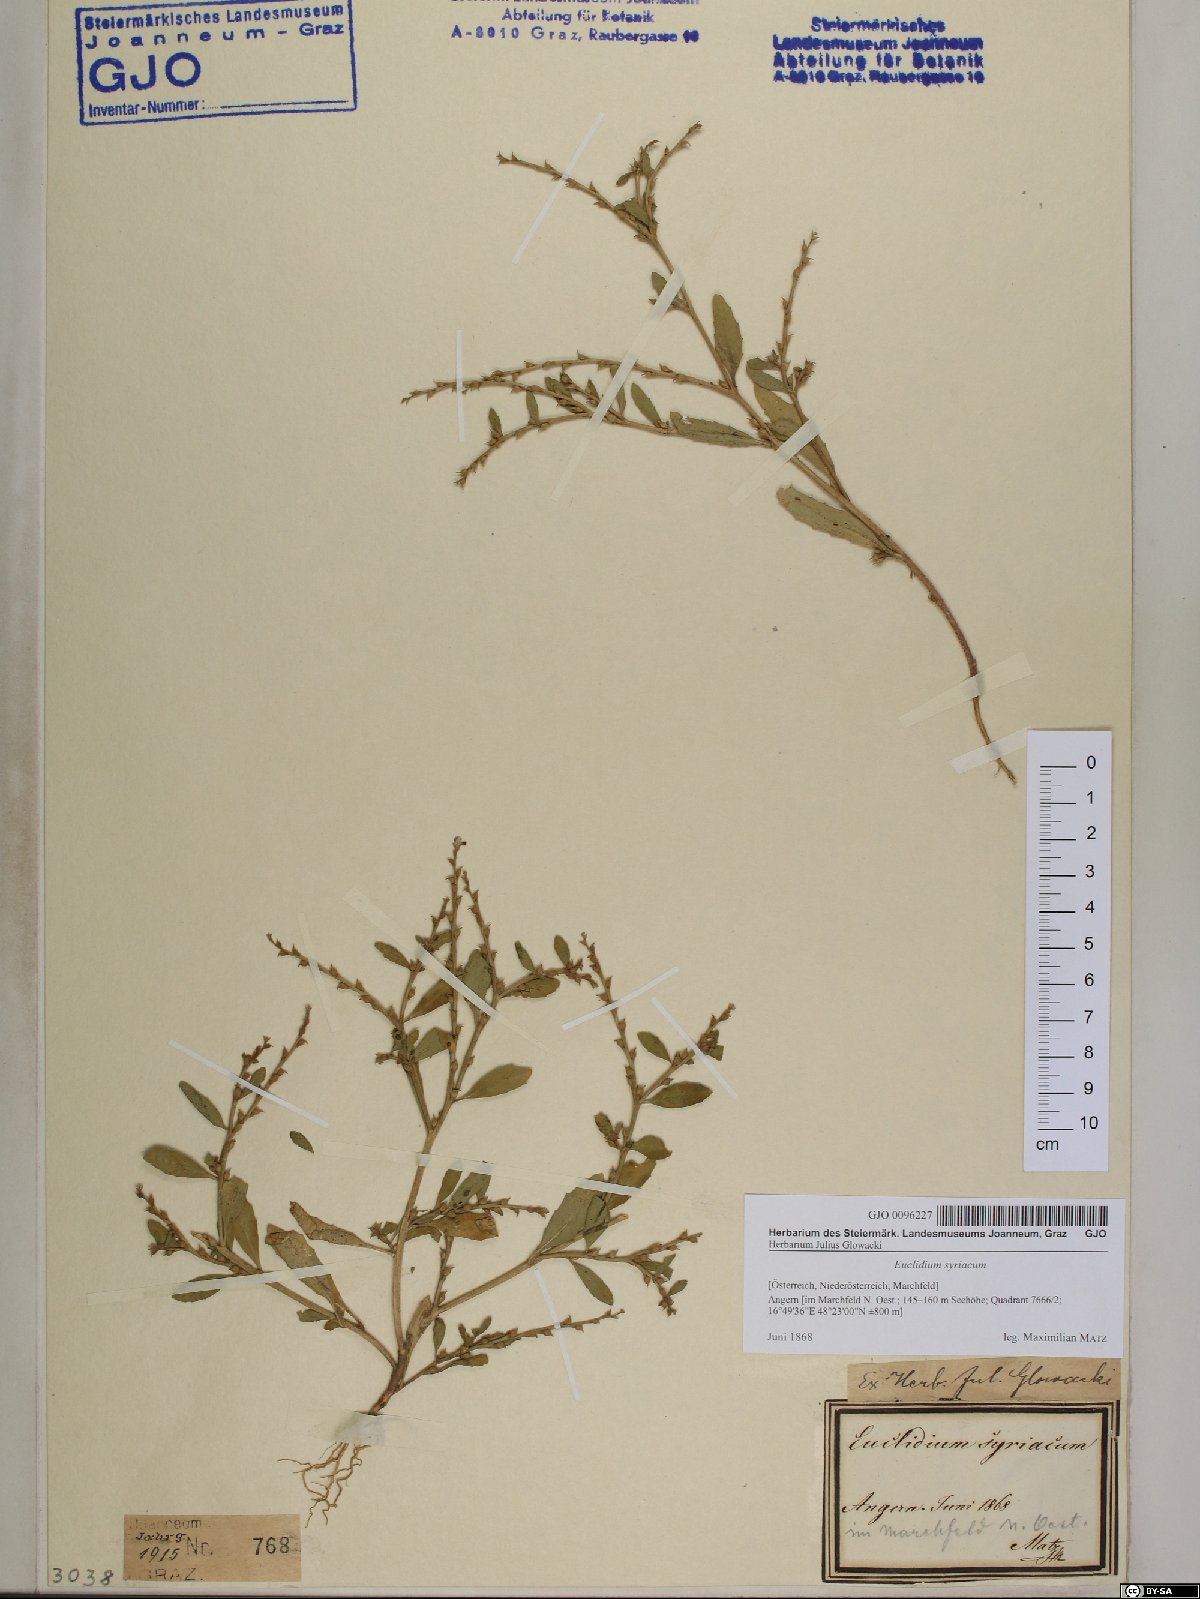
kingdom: Plantae
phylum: Tracheophyta
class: Magnoliopsida
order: Brassicales
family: Brassicaceae
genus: Euclidium
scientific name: Euclidium syriacum
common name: Syrian mustard
